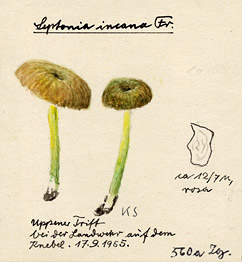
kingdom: Fungi
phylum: Basidiomycota
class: Agaricomycetes
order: Agaricales
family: Entolomataceae
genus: Entoloma
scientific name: Entoloma incanum
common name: Mousepee pinkgill
